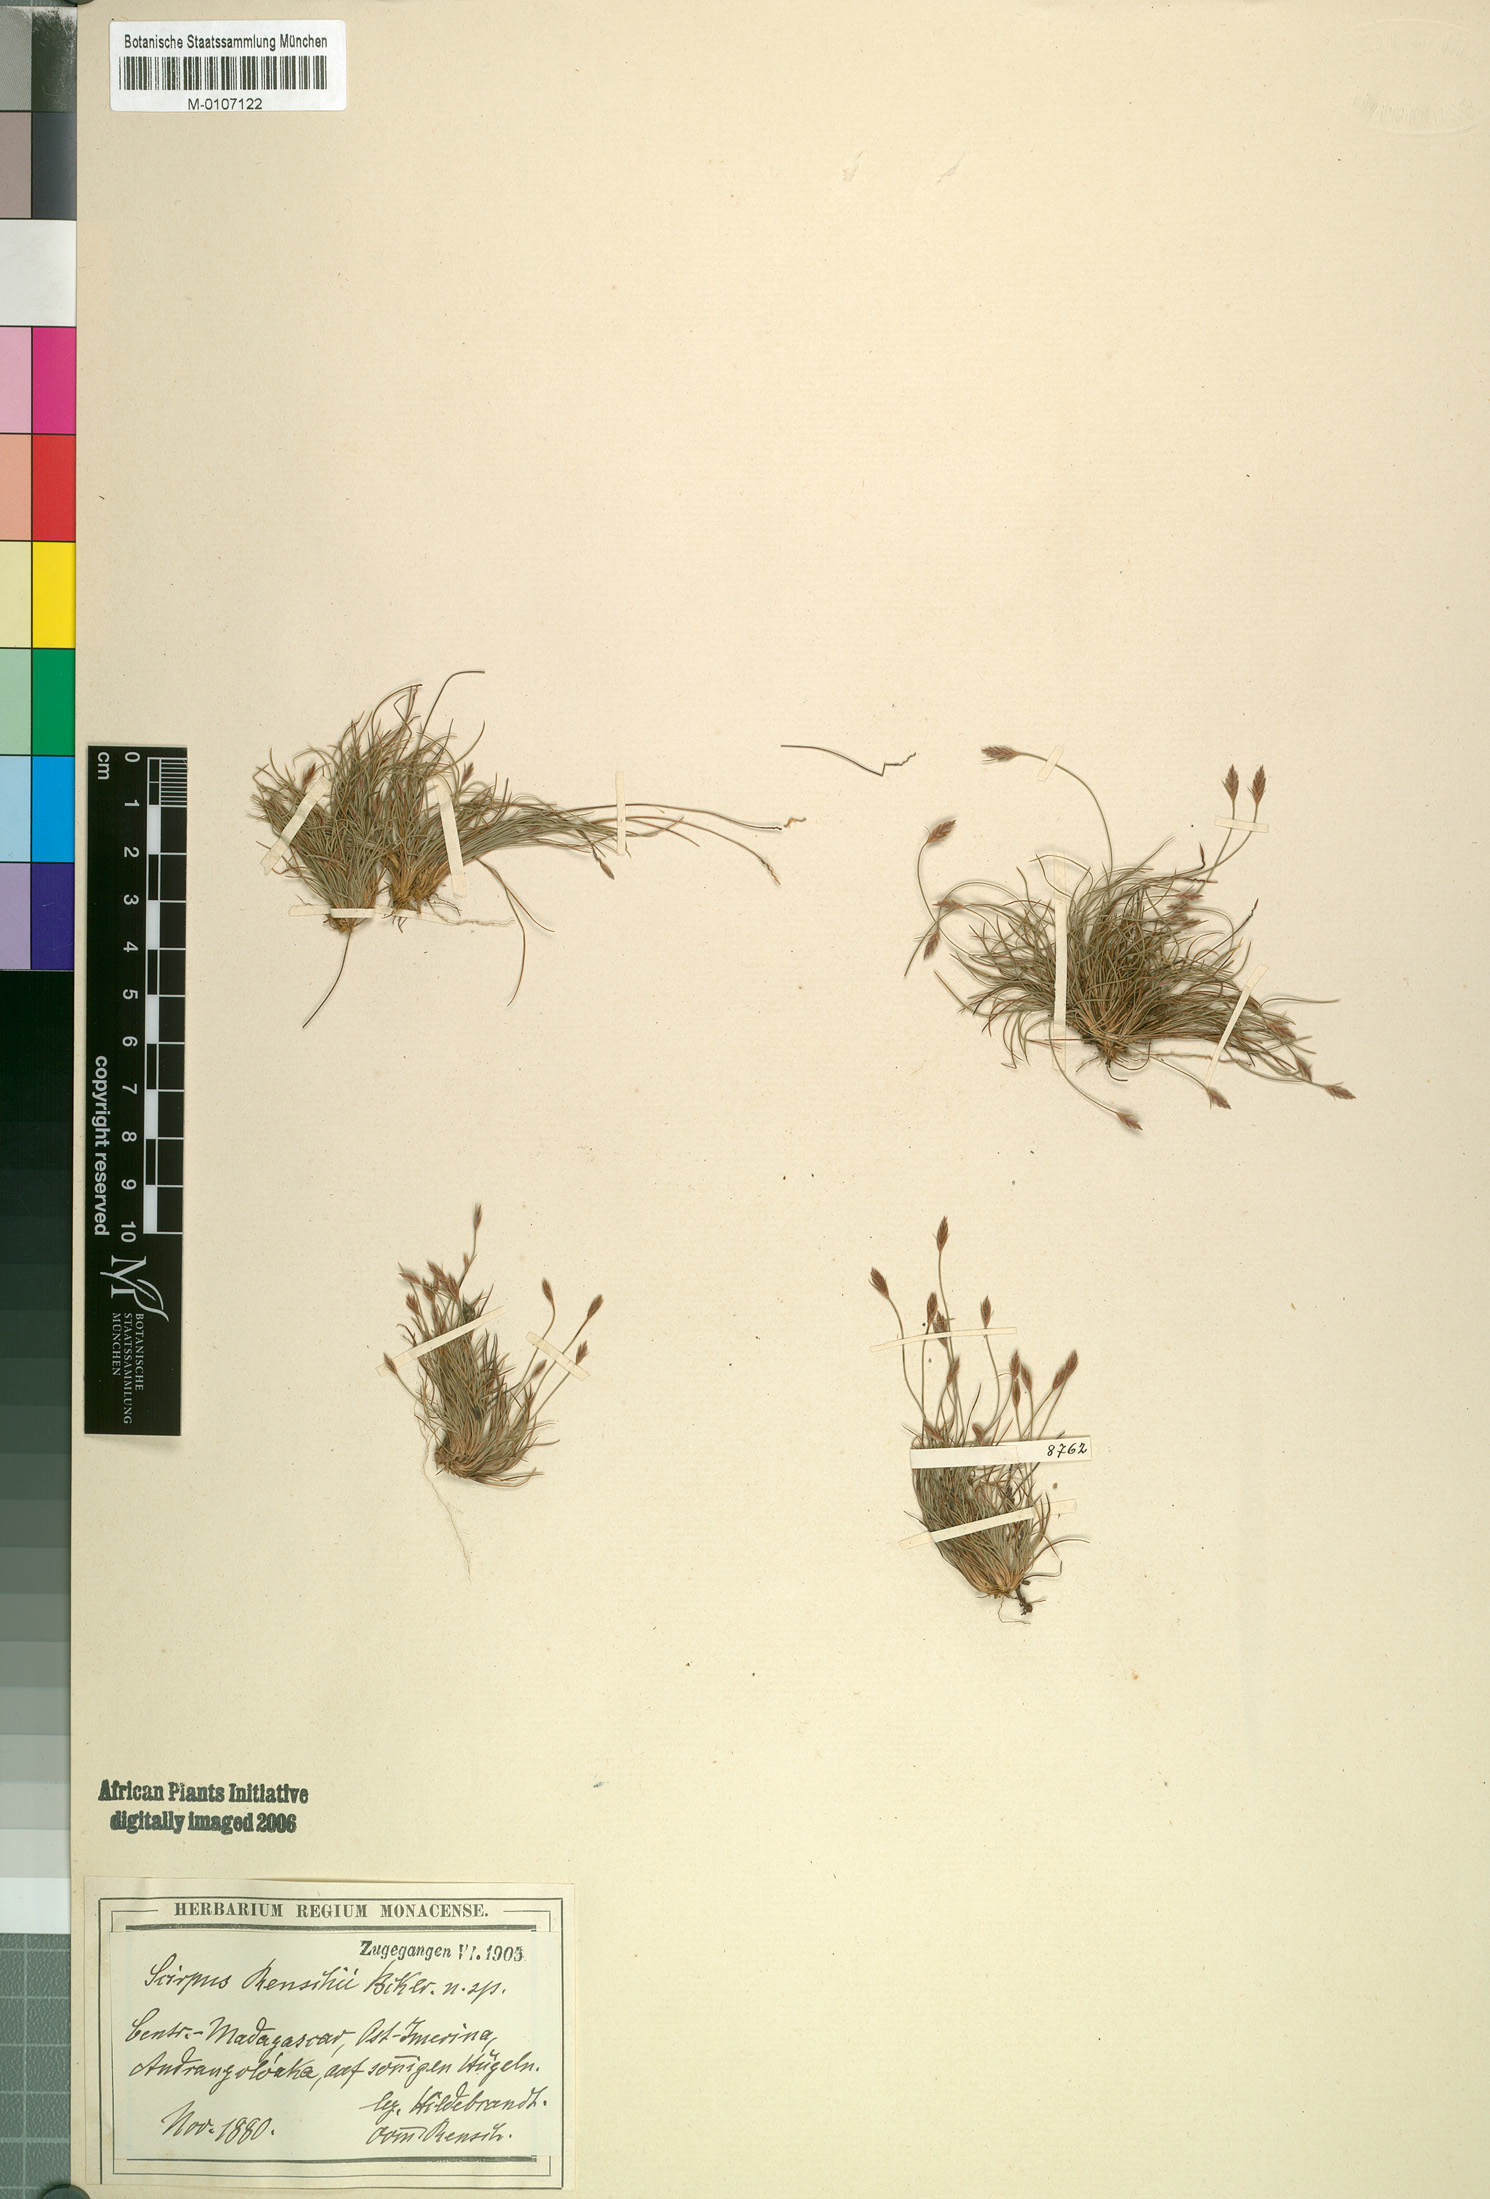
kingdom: Plantae
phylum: Tracheophyta
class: Liliopsida
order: Poales
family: Cyperaceae
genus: Bulbostylis
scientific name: Bulbostylis renschii
